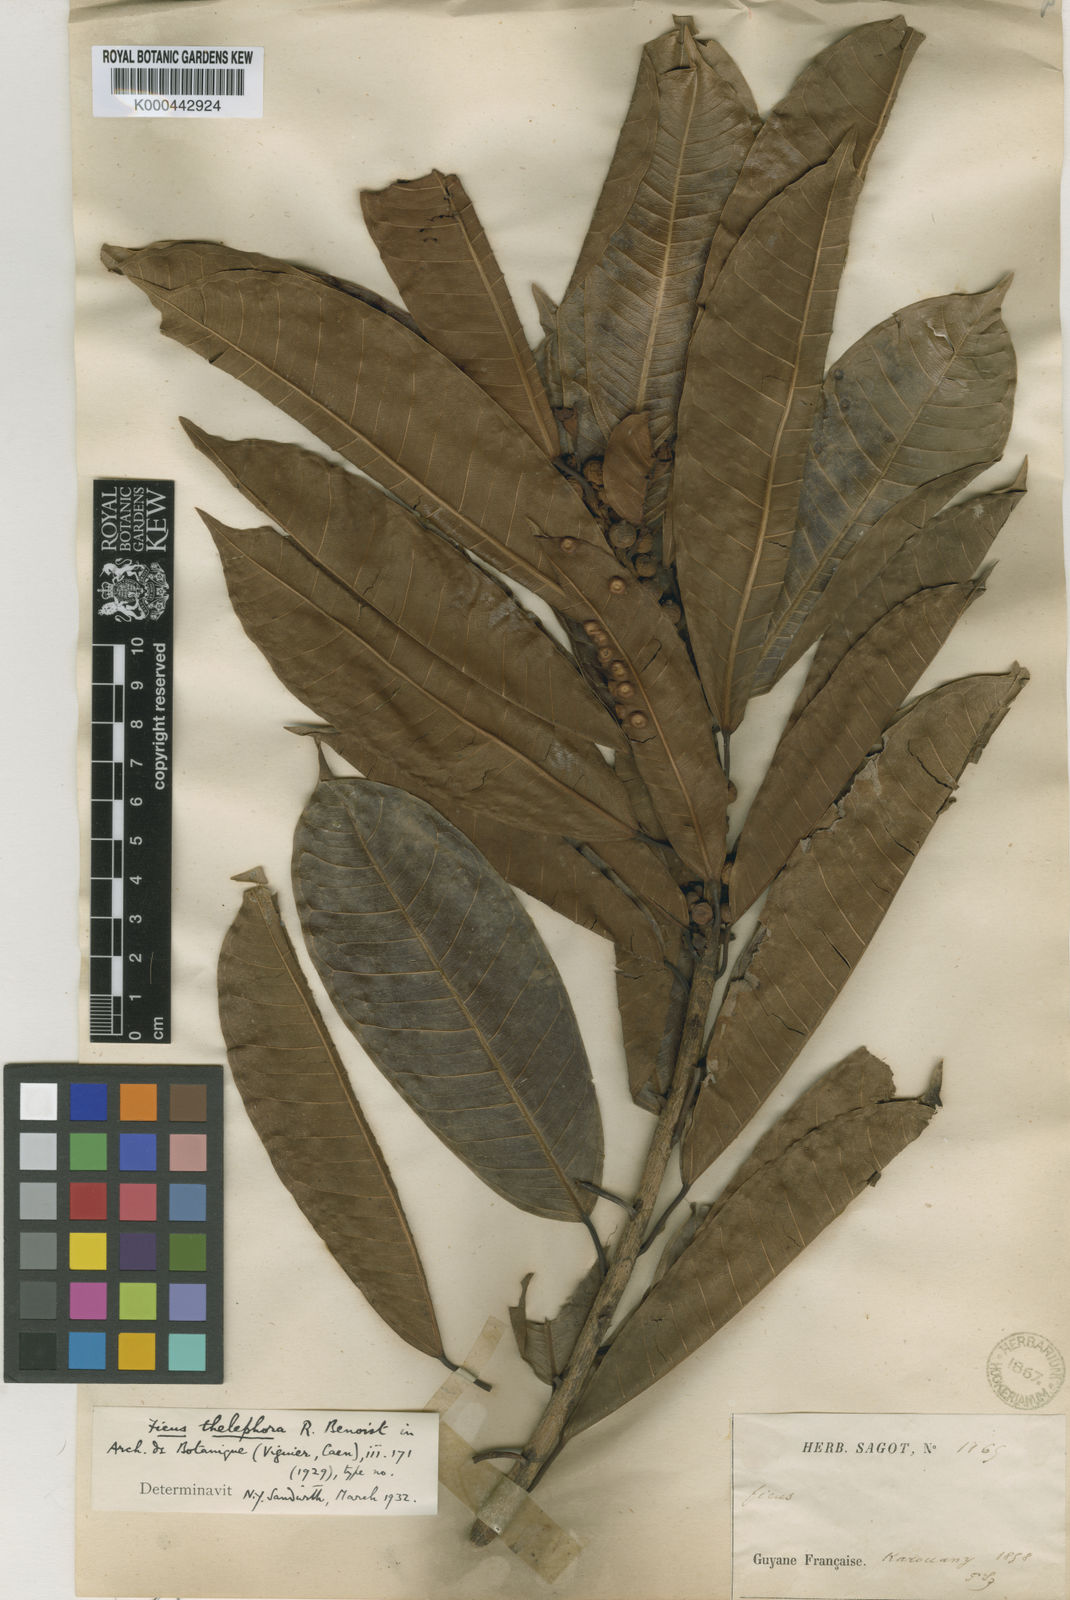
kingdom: Plantae
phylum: Tracheophyta
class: Magnoliopsida
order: Rosales
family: Moraceae
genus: Ficus
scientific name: Ficus paraensis
